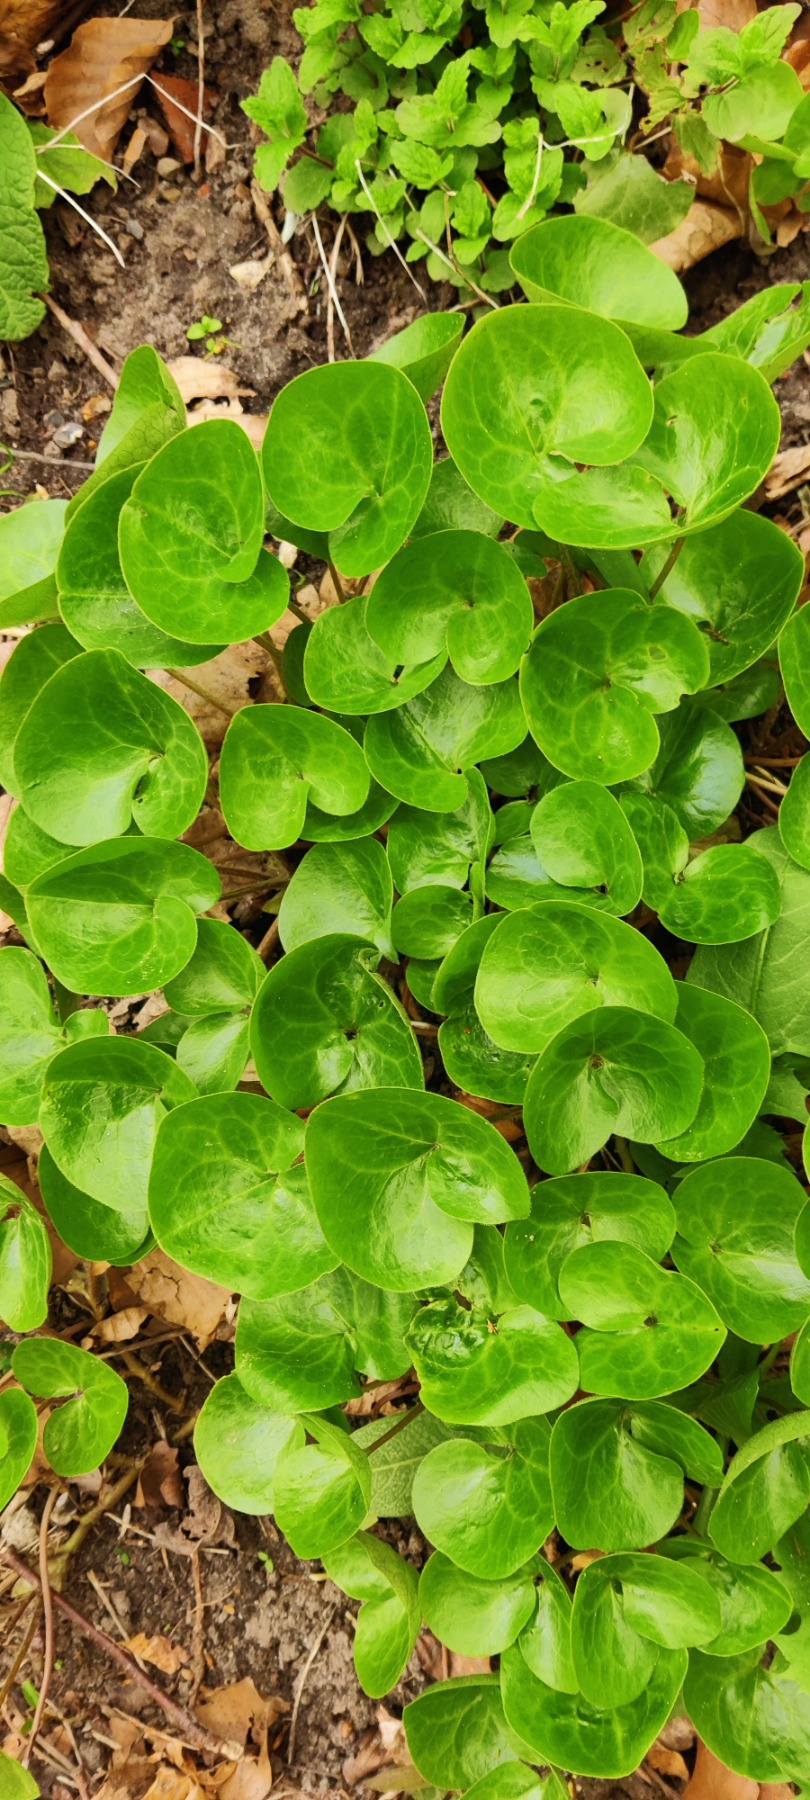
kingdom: Plantae
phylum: Tracheophyta
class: Magnoliopsida
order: Piperales
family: Aristolochiaceae
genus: Asarum
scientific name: Asarum europaeum
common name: Hasselurt
